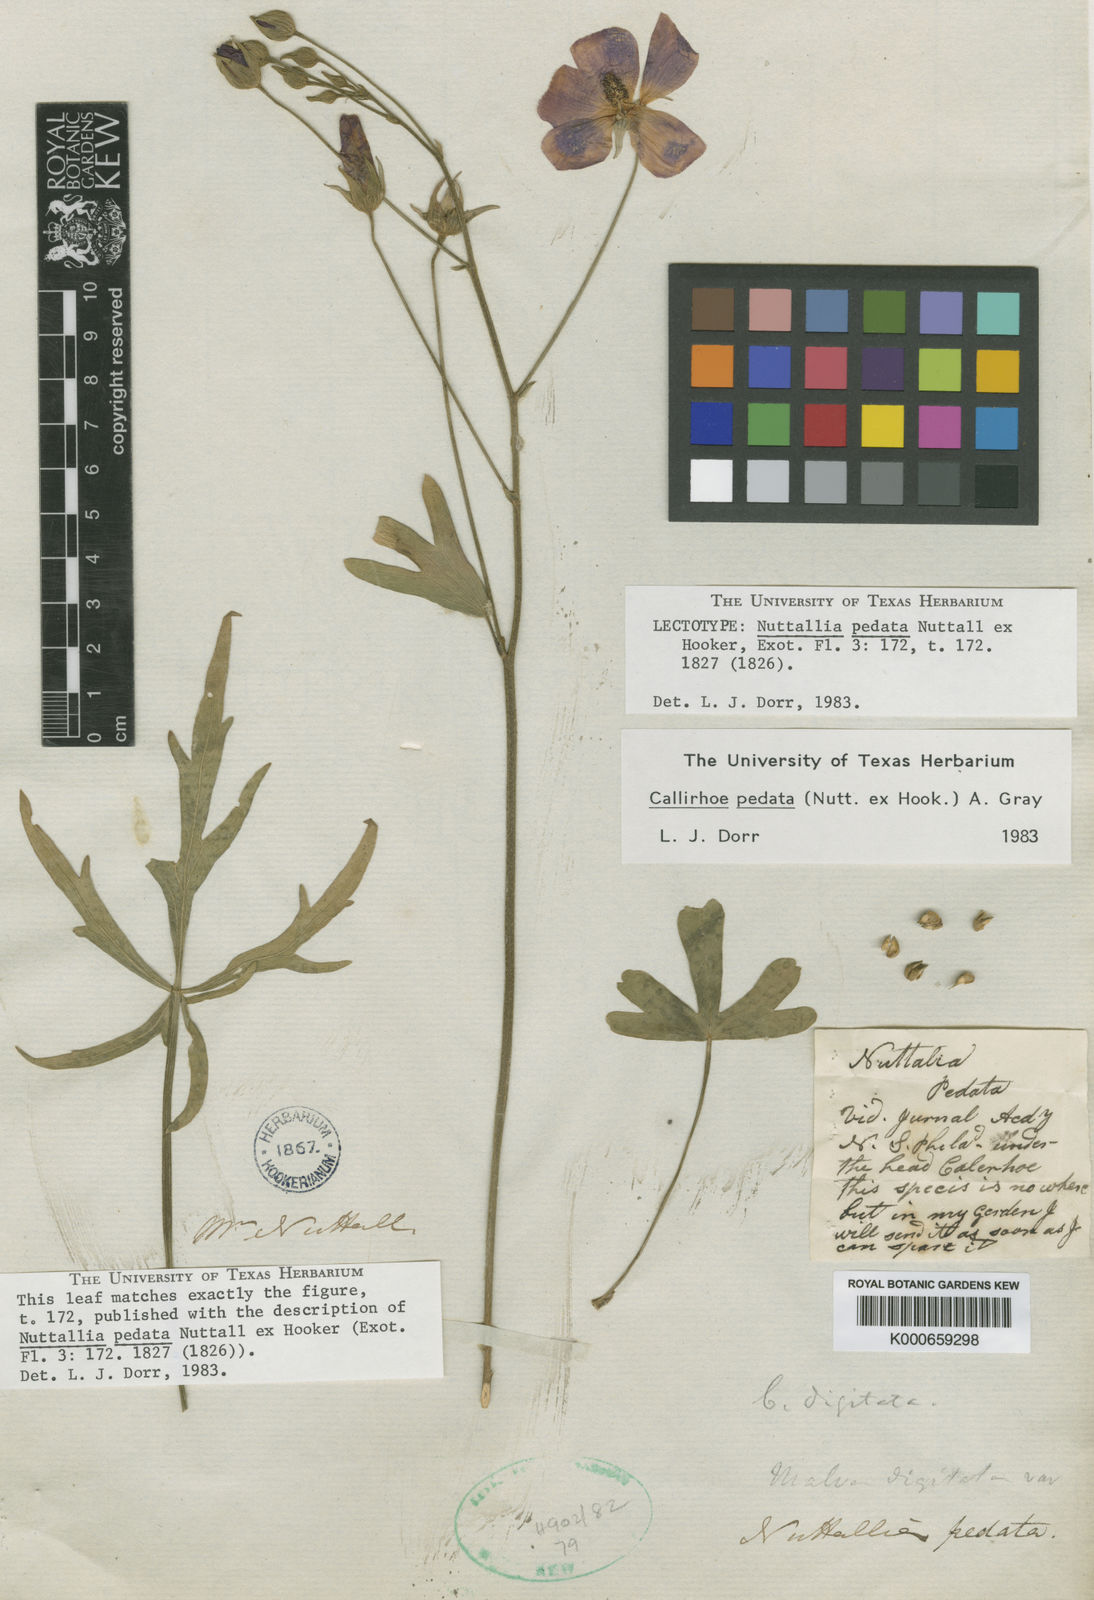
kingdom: Plantae
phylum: Tracheophyta
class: Magnoliopsida
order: Malvales
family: Malvaceae
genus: Callirhoe
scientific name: Callirhoe pedata
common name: Finger poppy-mallow
